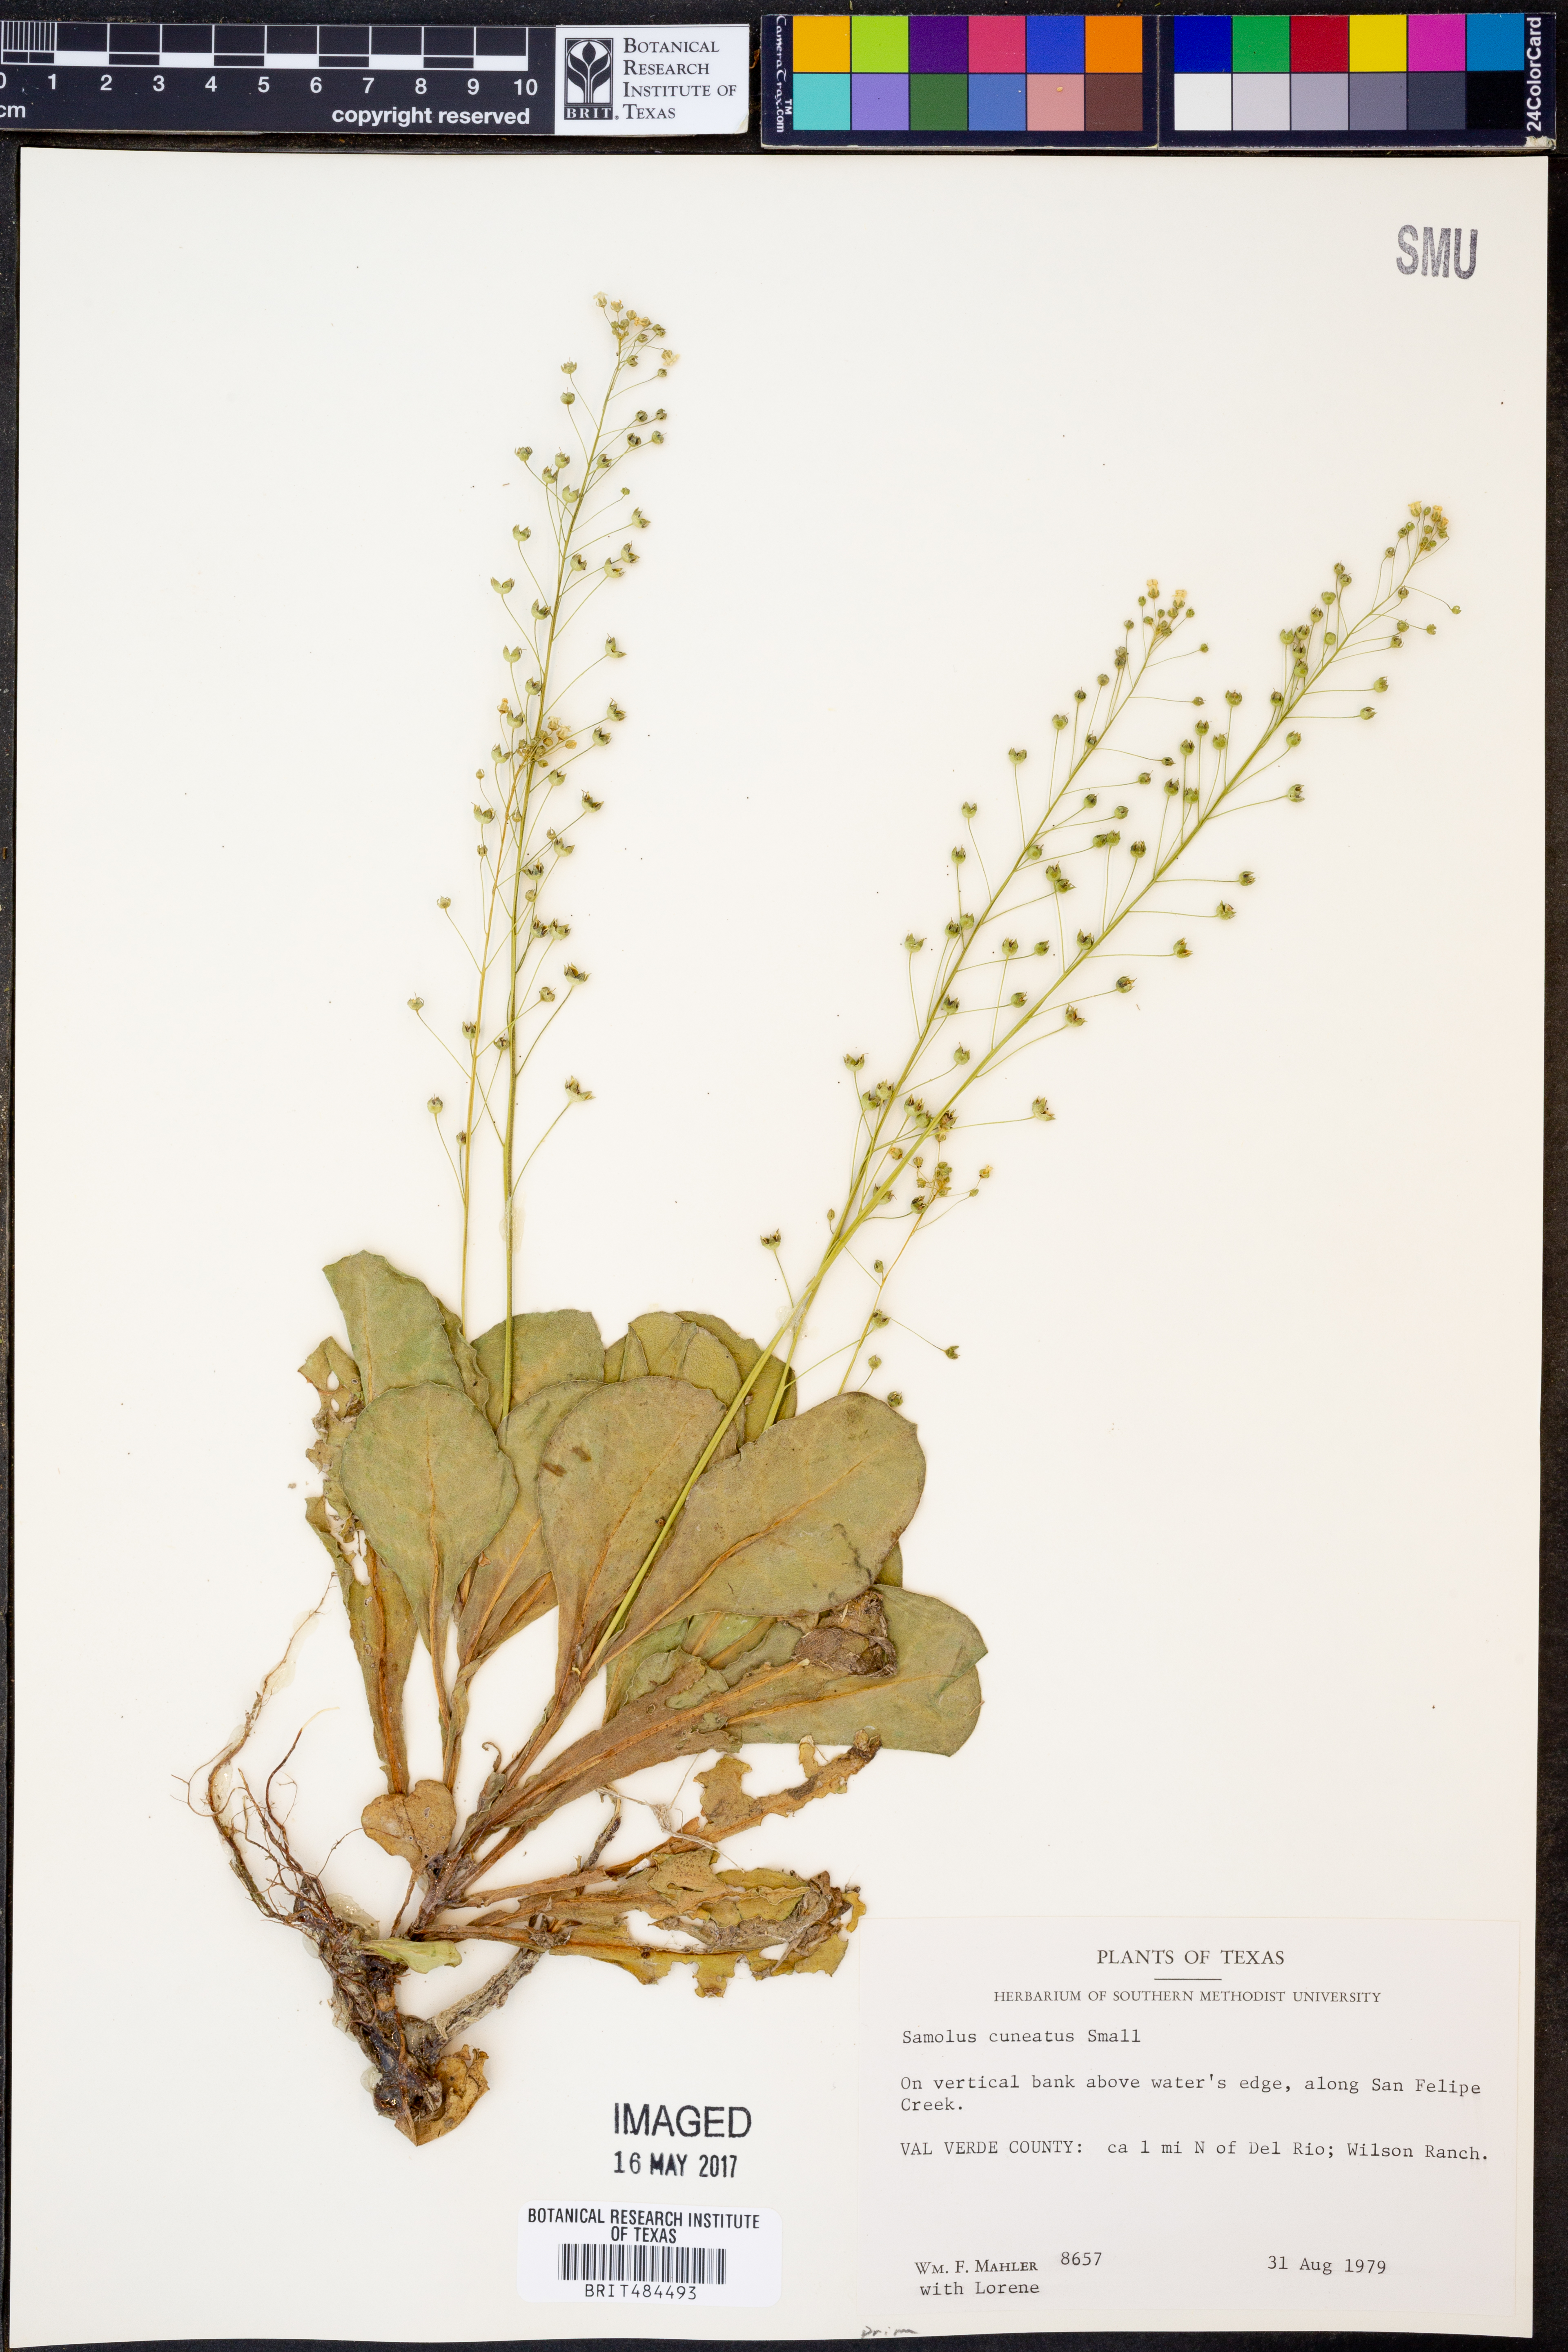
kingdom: Plantae
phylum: Tracheophyta
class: Magnoliopsida
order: Ericales
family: Primulaceae
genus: Samolus
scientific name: Samolus ebracteatus
